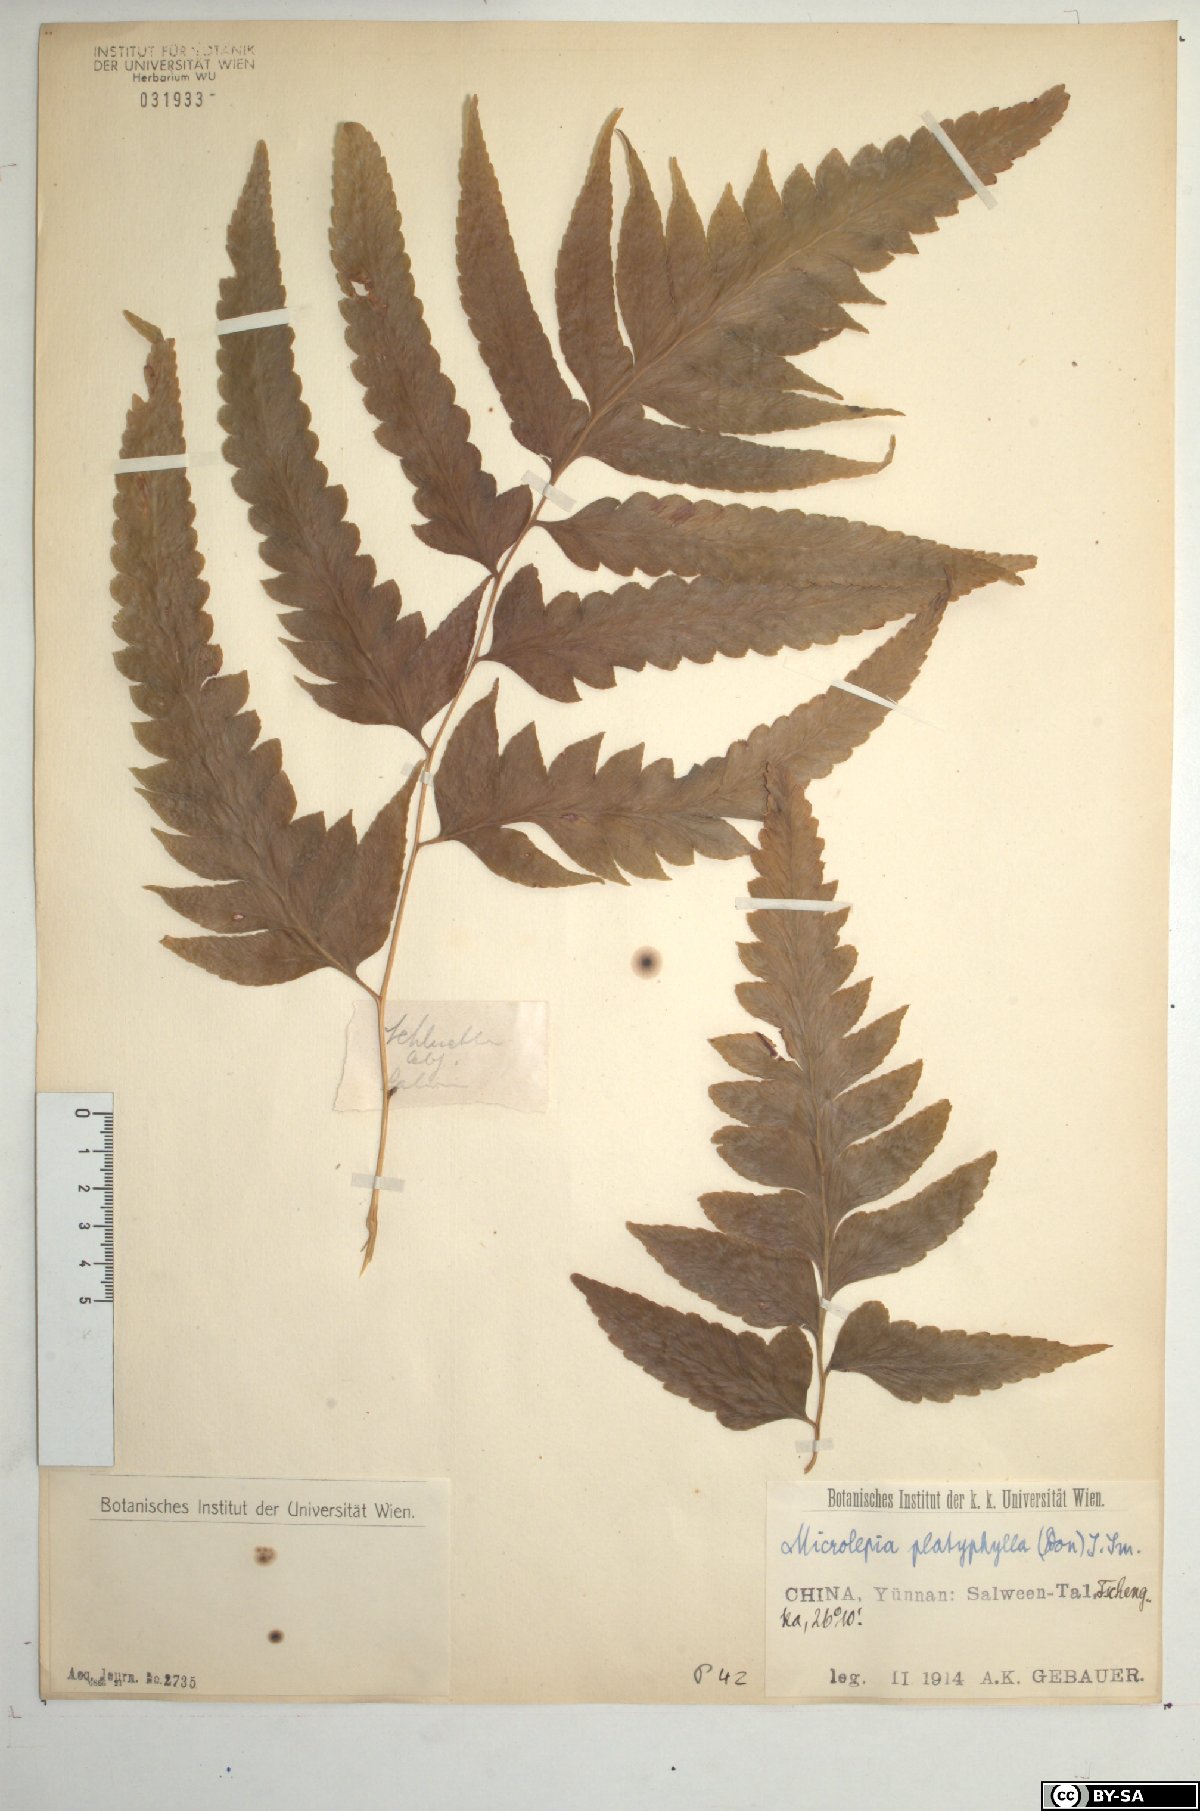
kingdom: Plantae
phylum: Tracheophyta
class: Polypodiopsida
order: Polypodiales
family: Dennstaedtiaceae
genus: Microlepia
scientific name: Microlepia platyphylla
